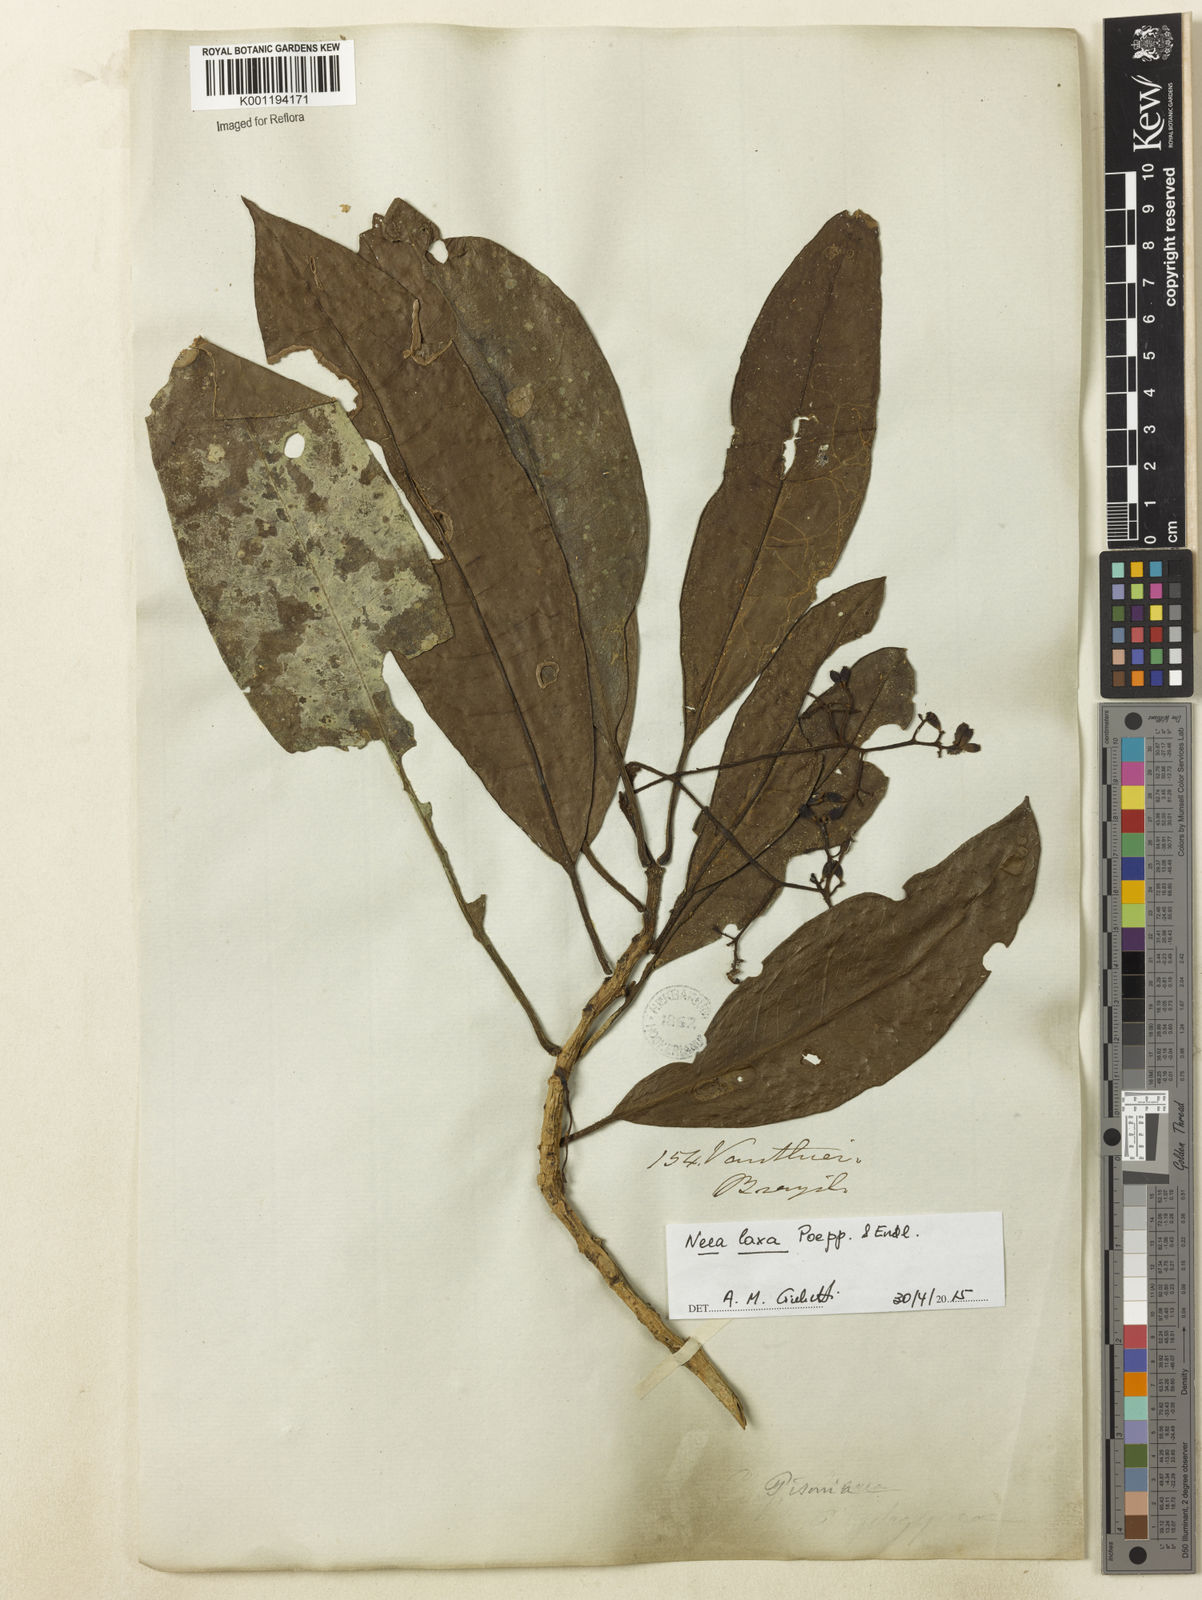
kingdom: Plantae
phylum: Tracheophyta
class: Magnoliopsida
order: Caryophyllales
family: Nyctaginaceae
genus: Neea
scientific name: Neea laxa
